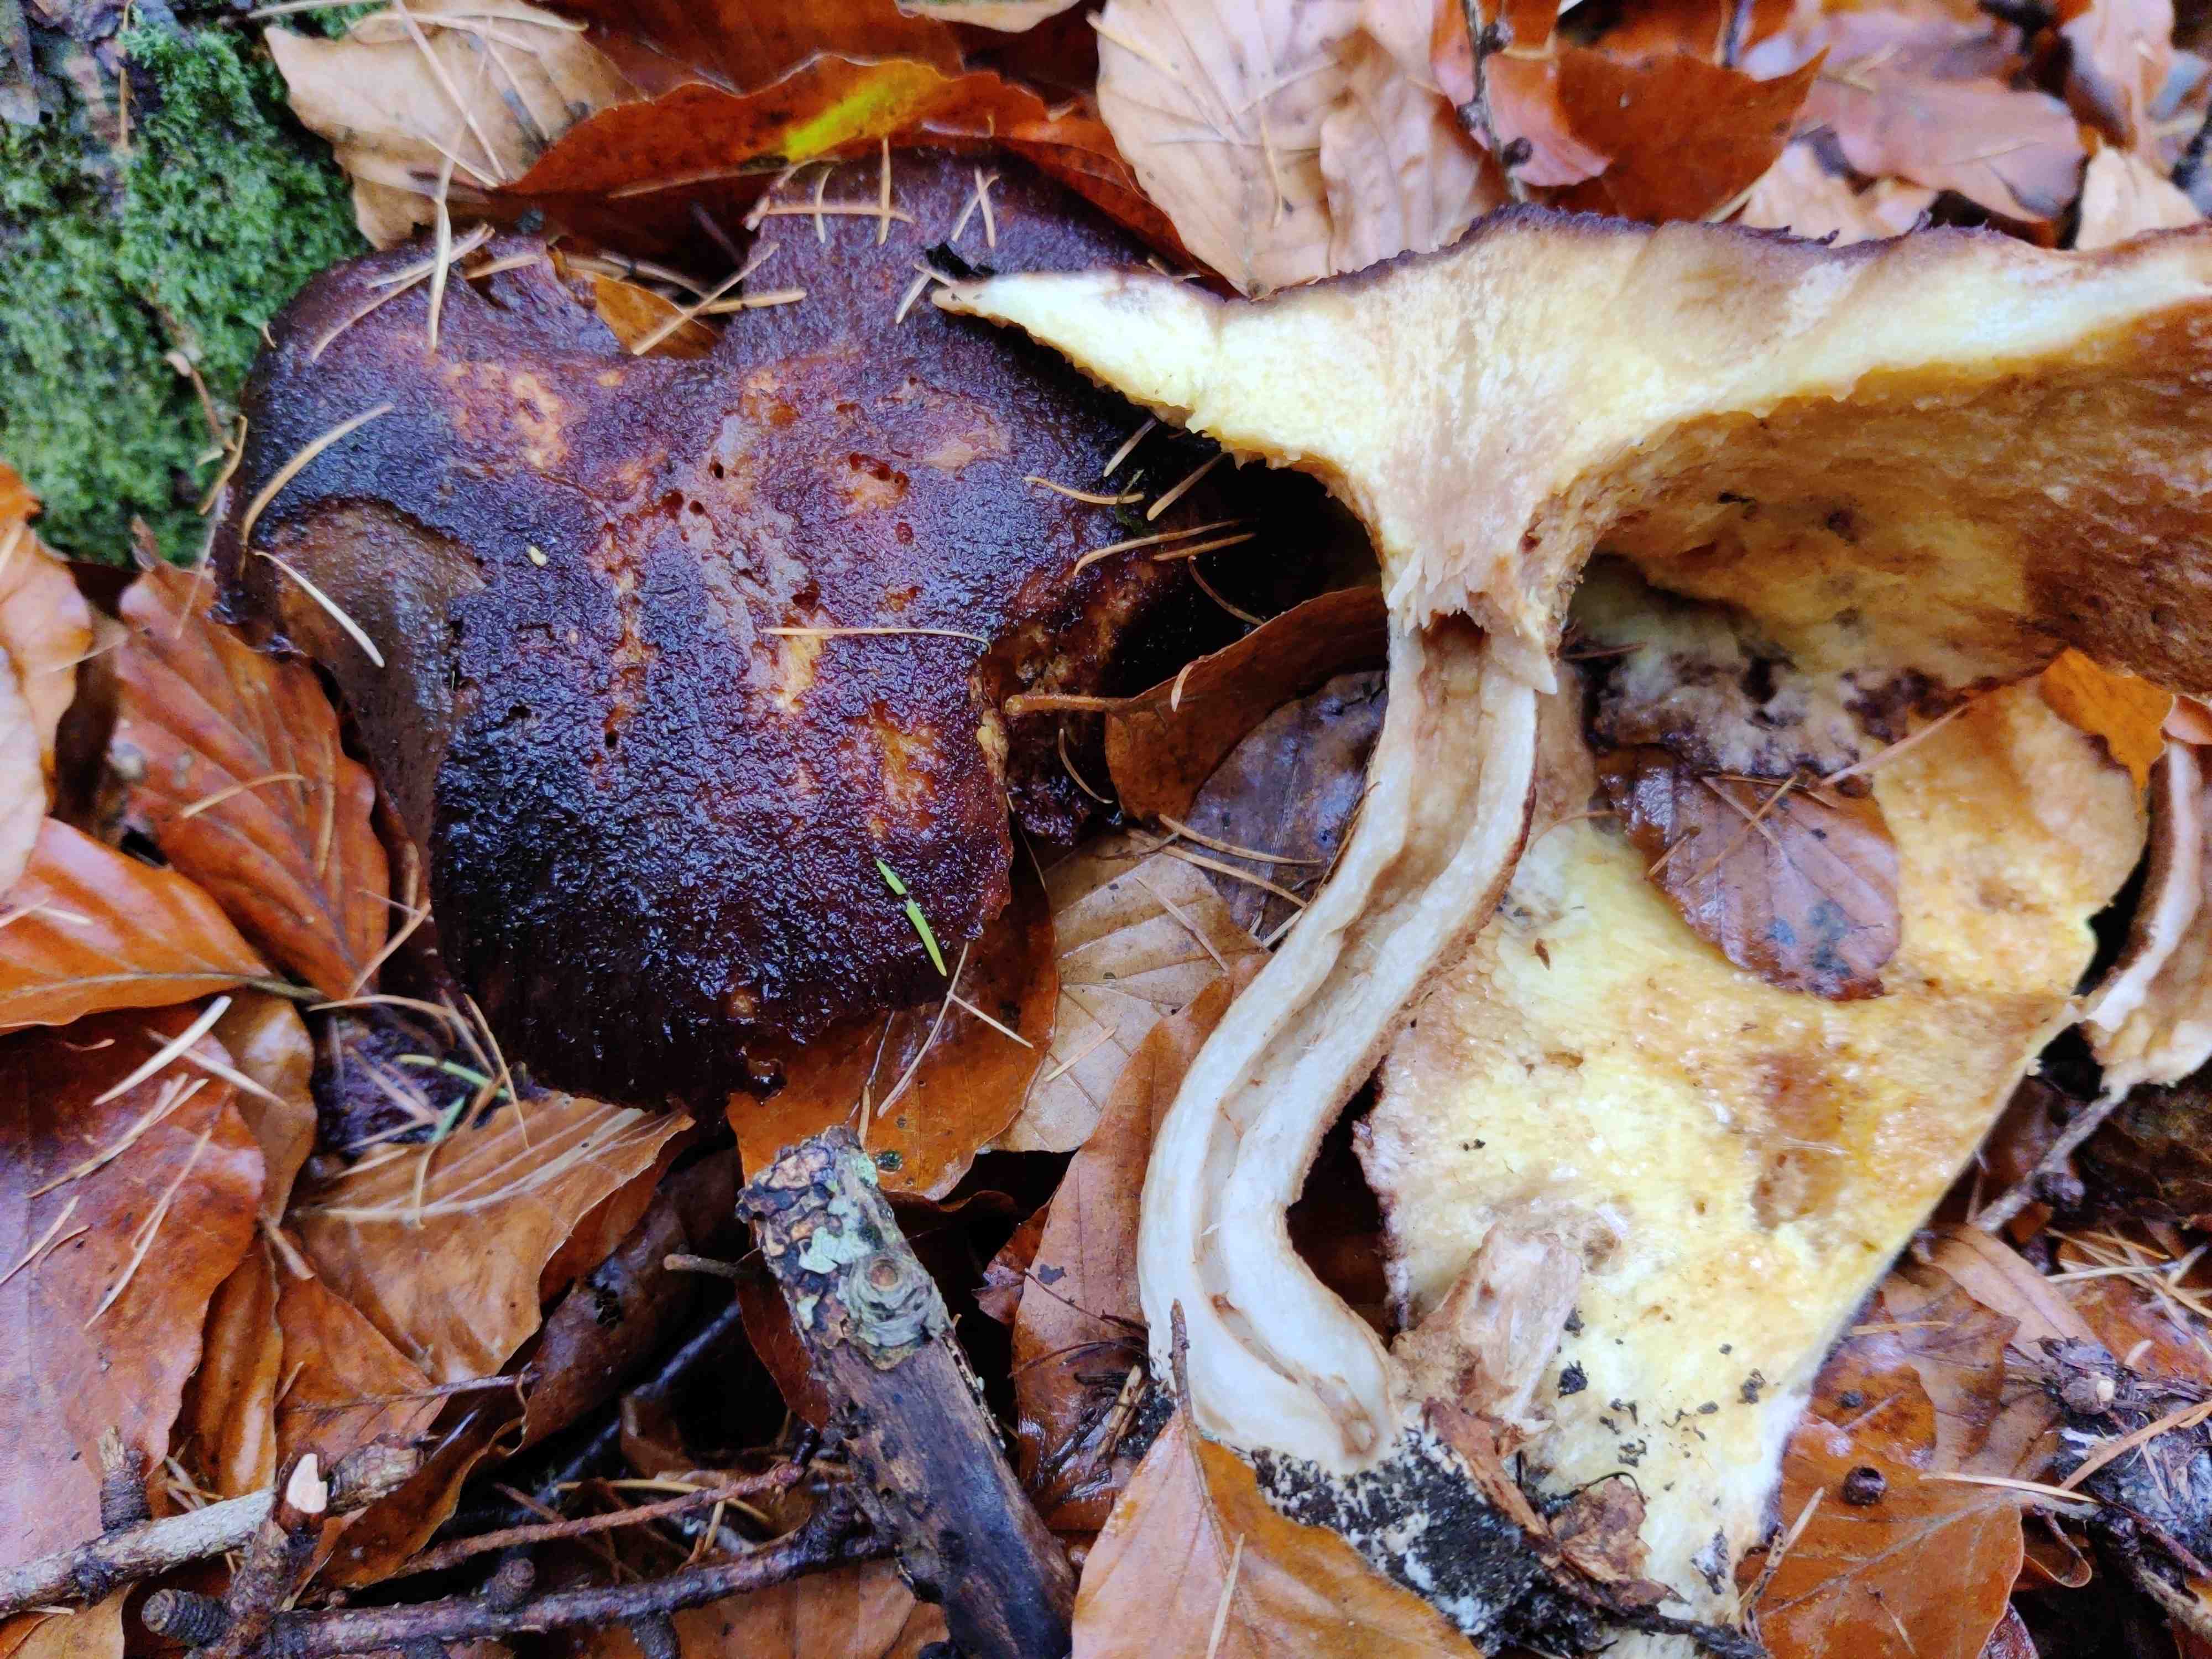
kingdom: Fungi
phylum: Basidiomycota
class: Agaricomycetes
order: Boletales
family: Suillaceae
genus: Suillus
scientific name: Suillus cavipes
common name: hulstokket slimrørhat
